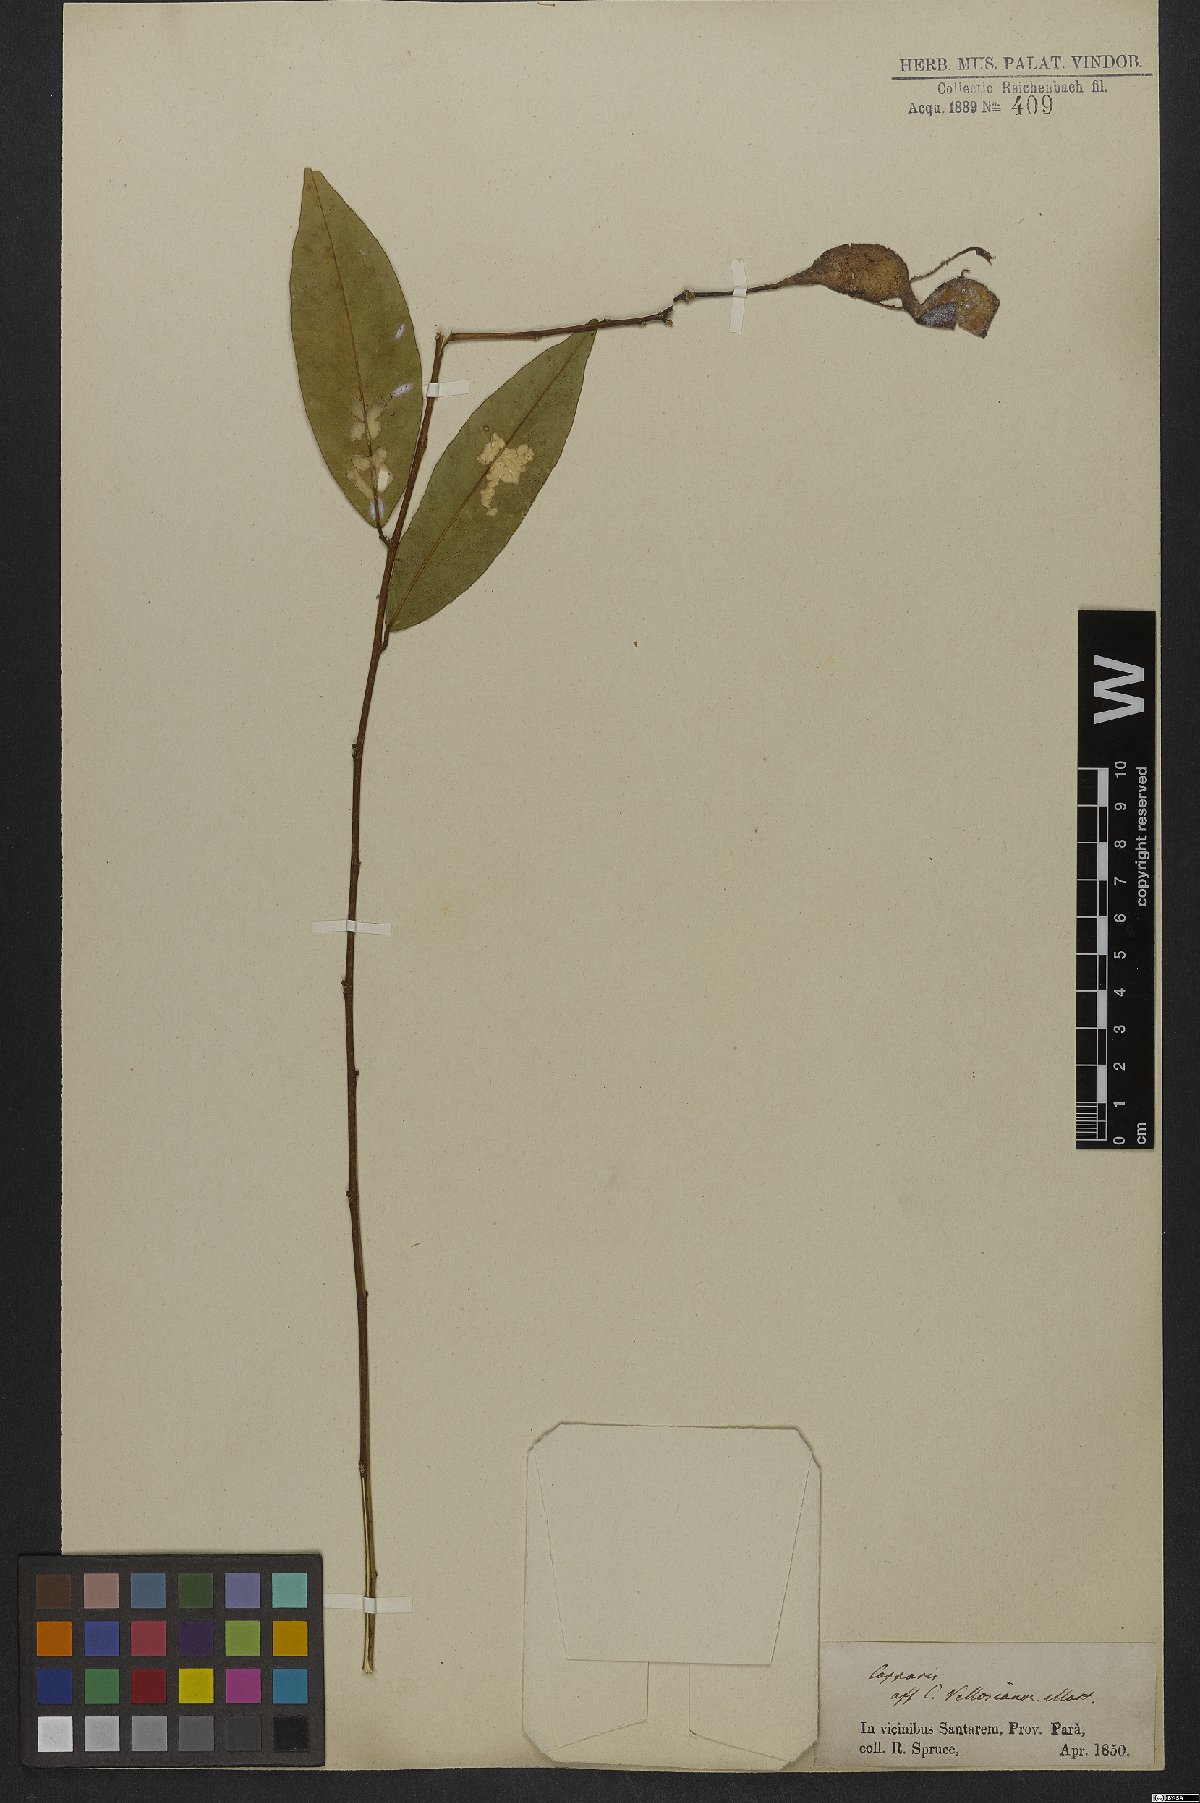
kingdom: Plantae
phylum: Tracheophyta
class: Magnoliopsida
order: Brassicales
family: Capparaceae
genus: Cynophalla
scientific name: Cynophalla declinata
